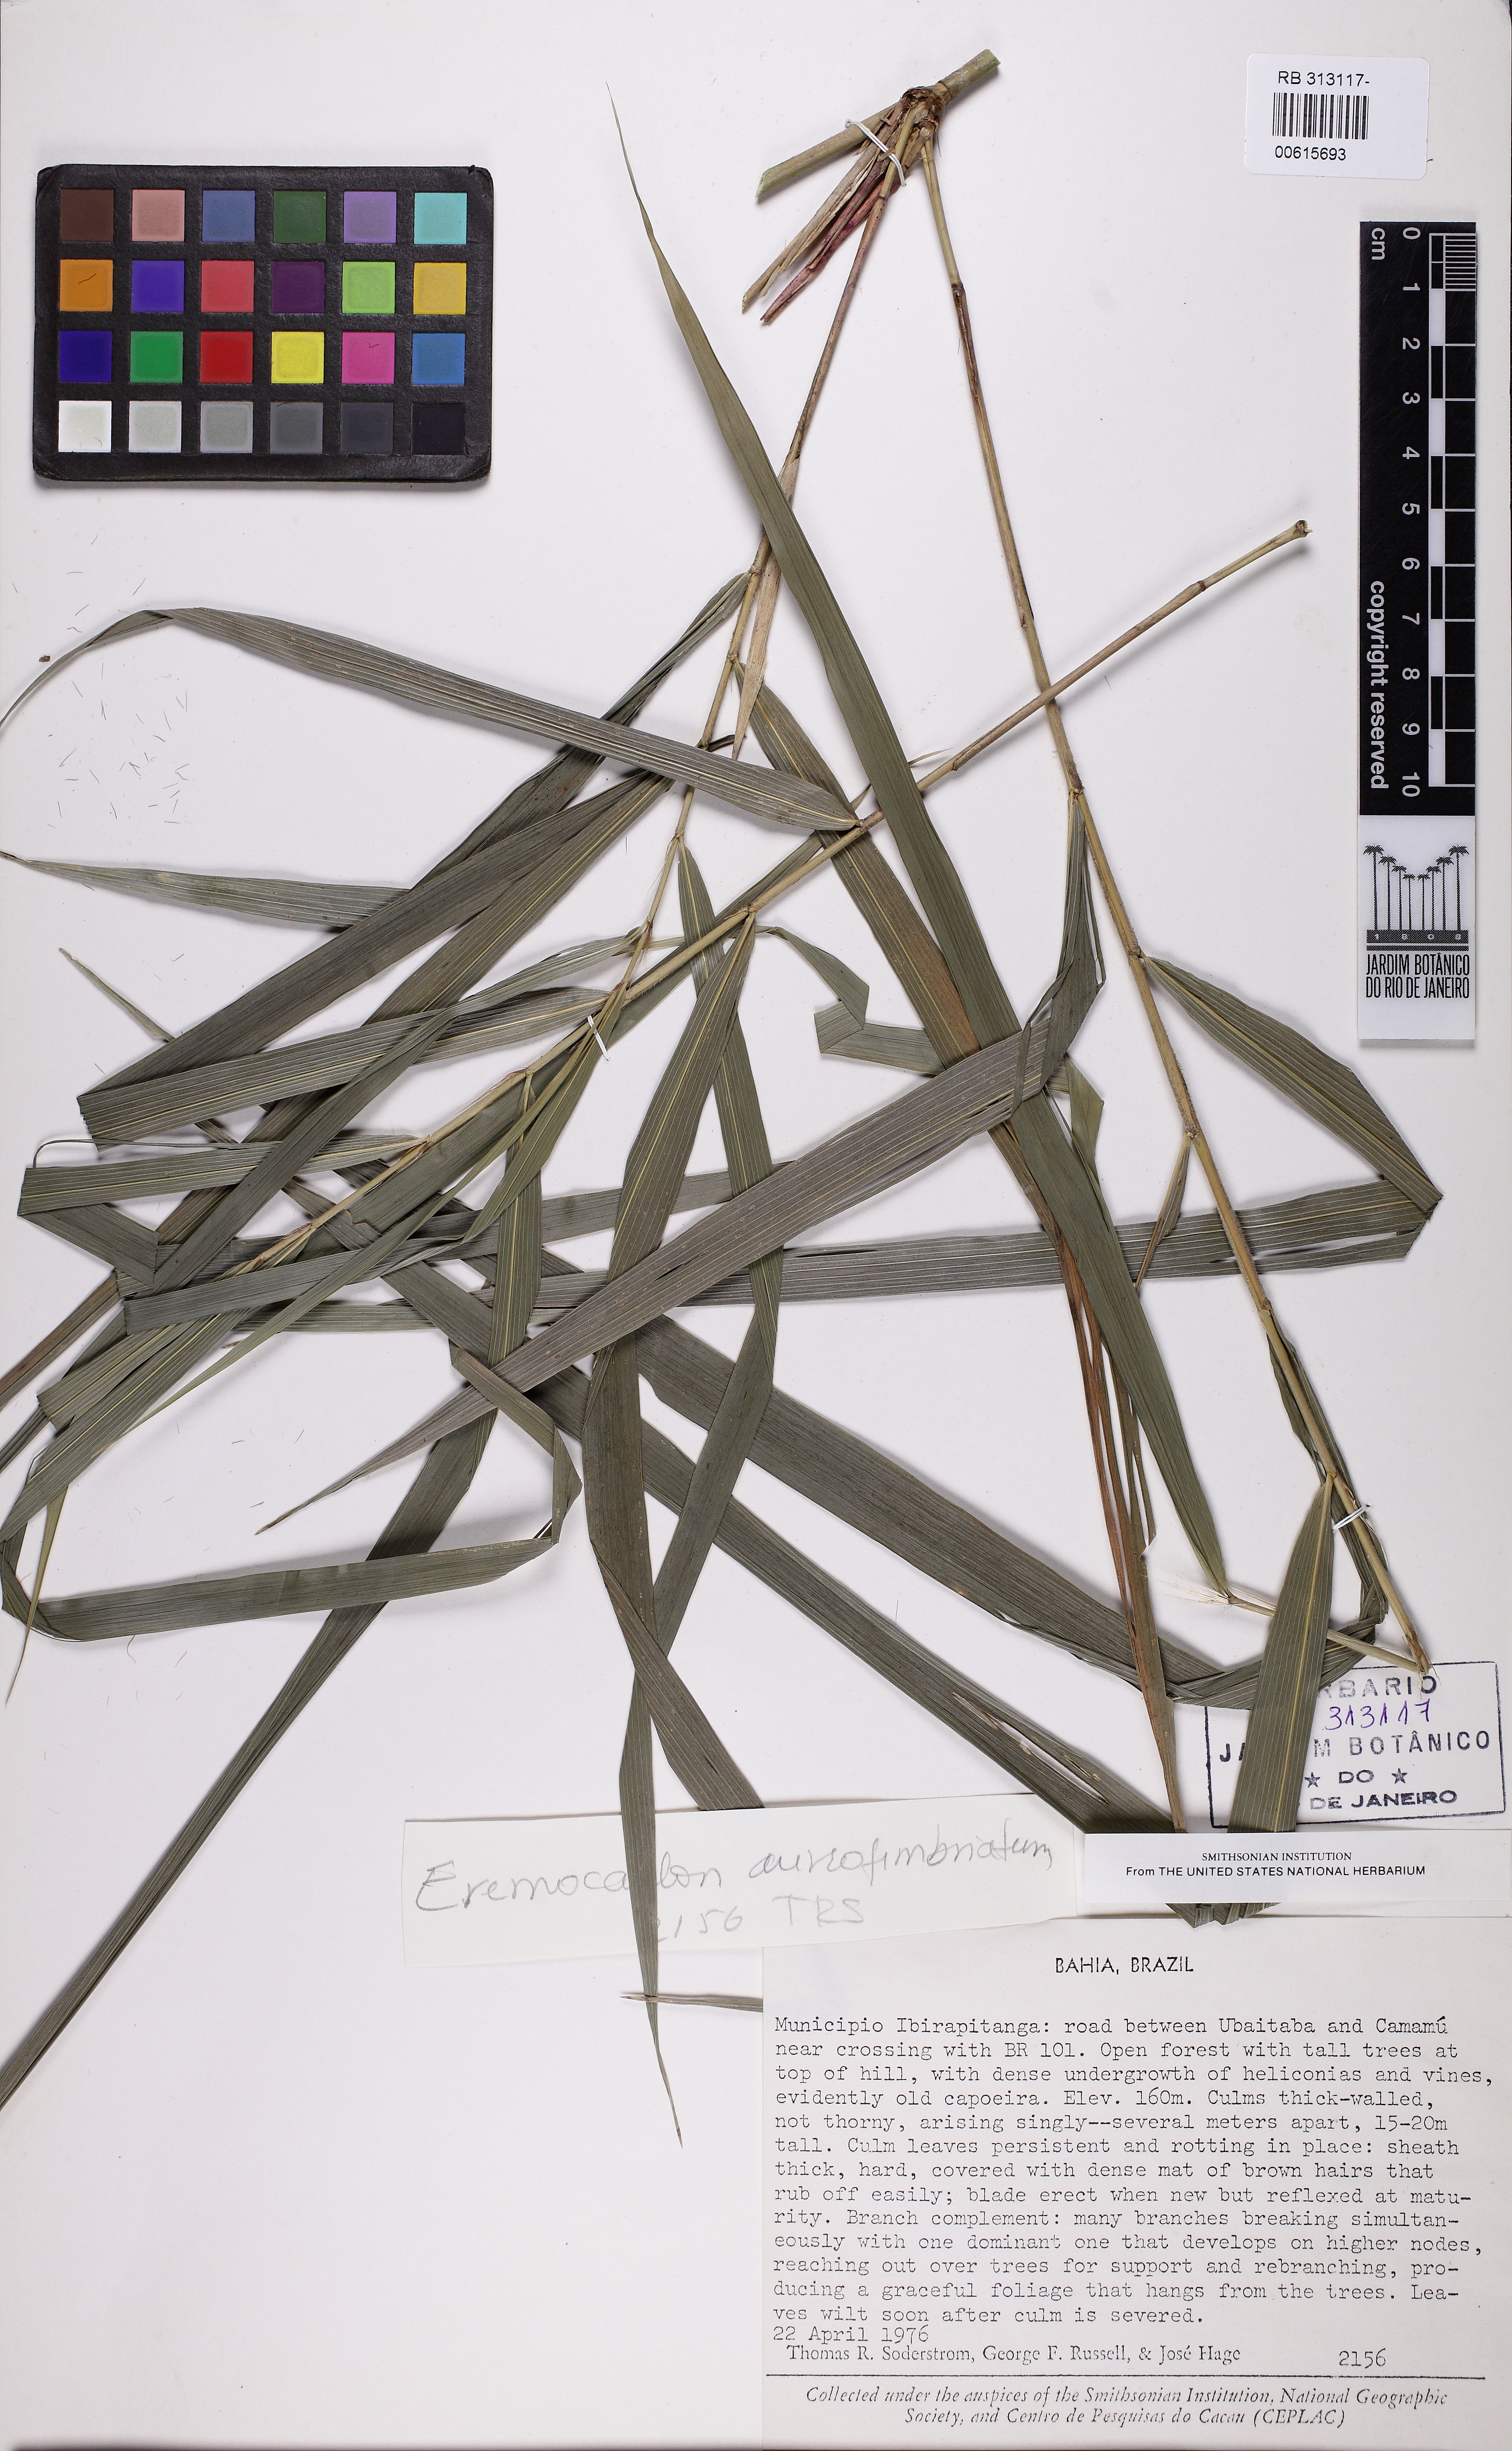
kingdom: Plantae
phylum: Tracheophyta
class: Liliopsida
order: Poales
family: Poaceae
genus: Eremocaulon
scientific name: Eremocaulon aureofimbriatum
